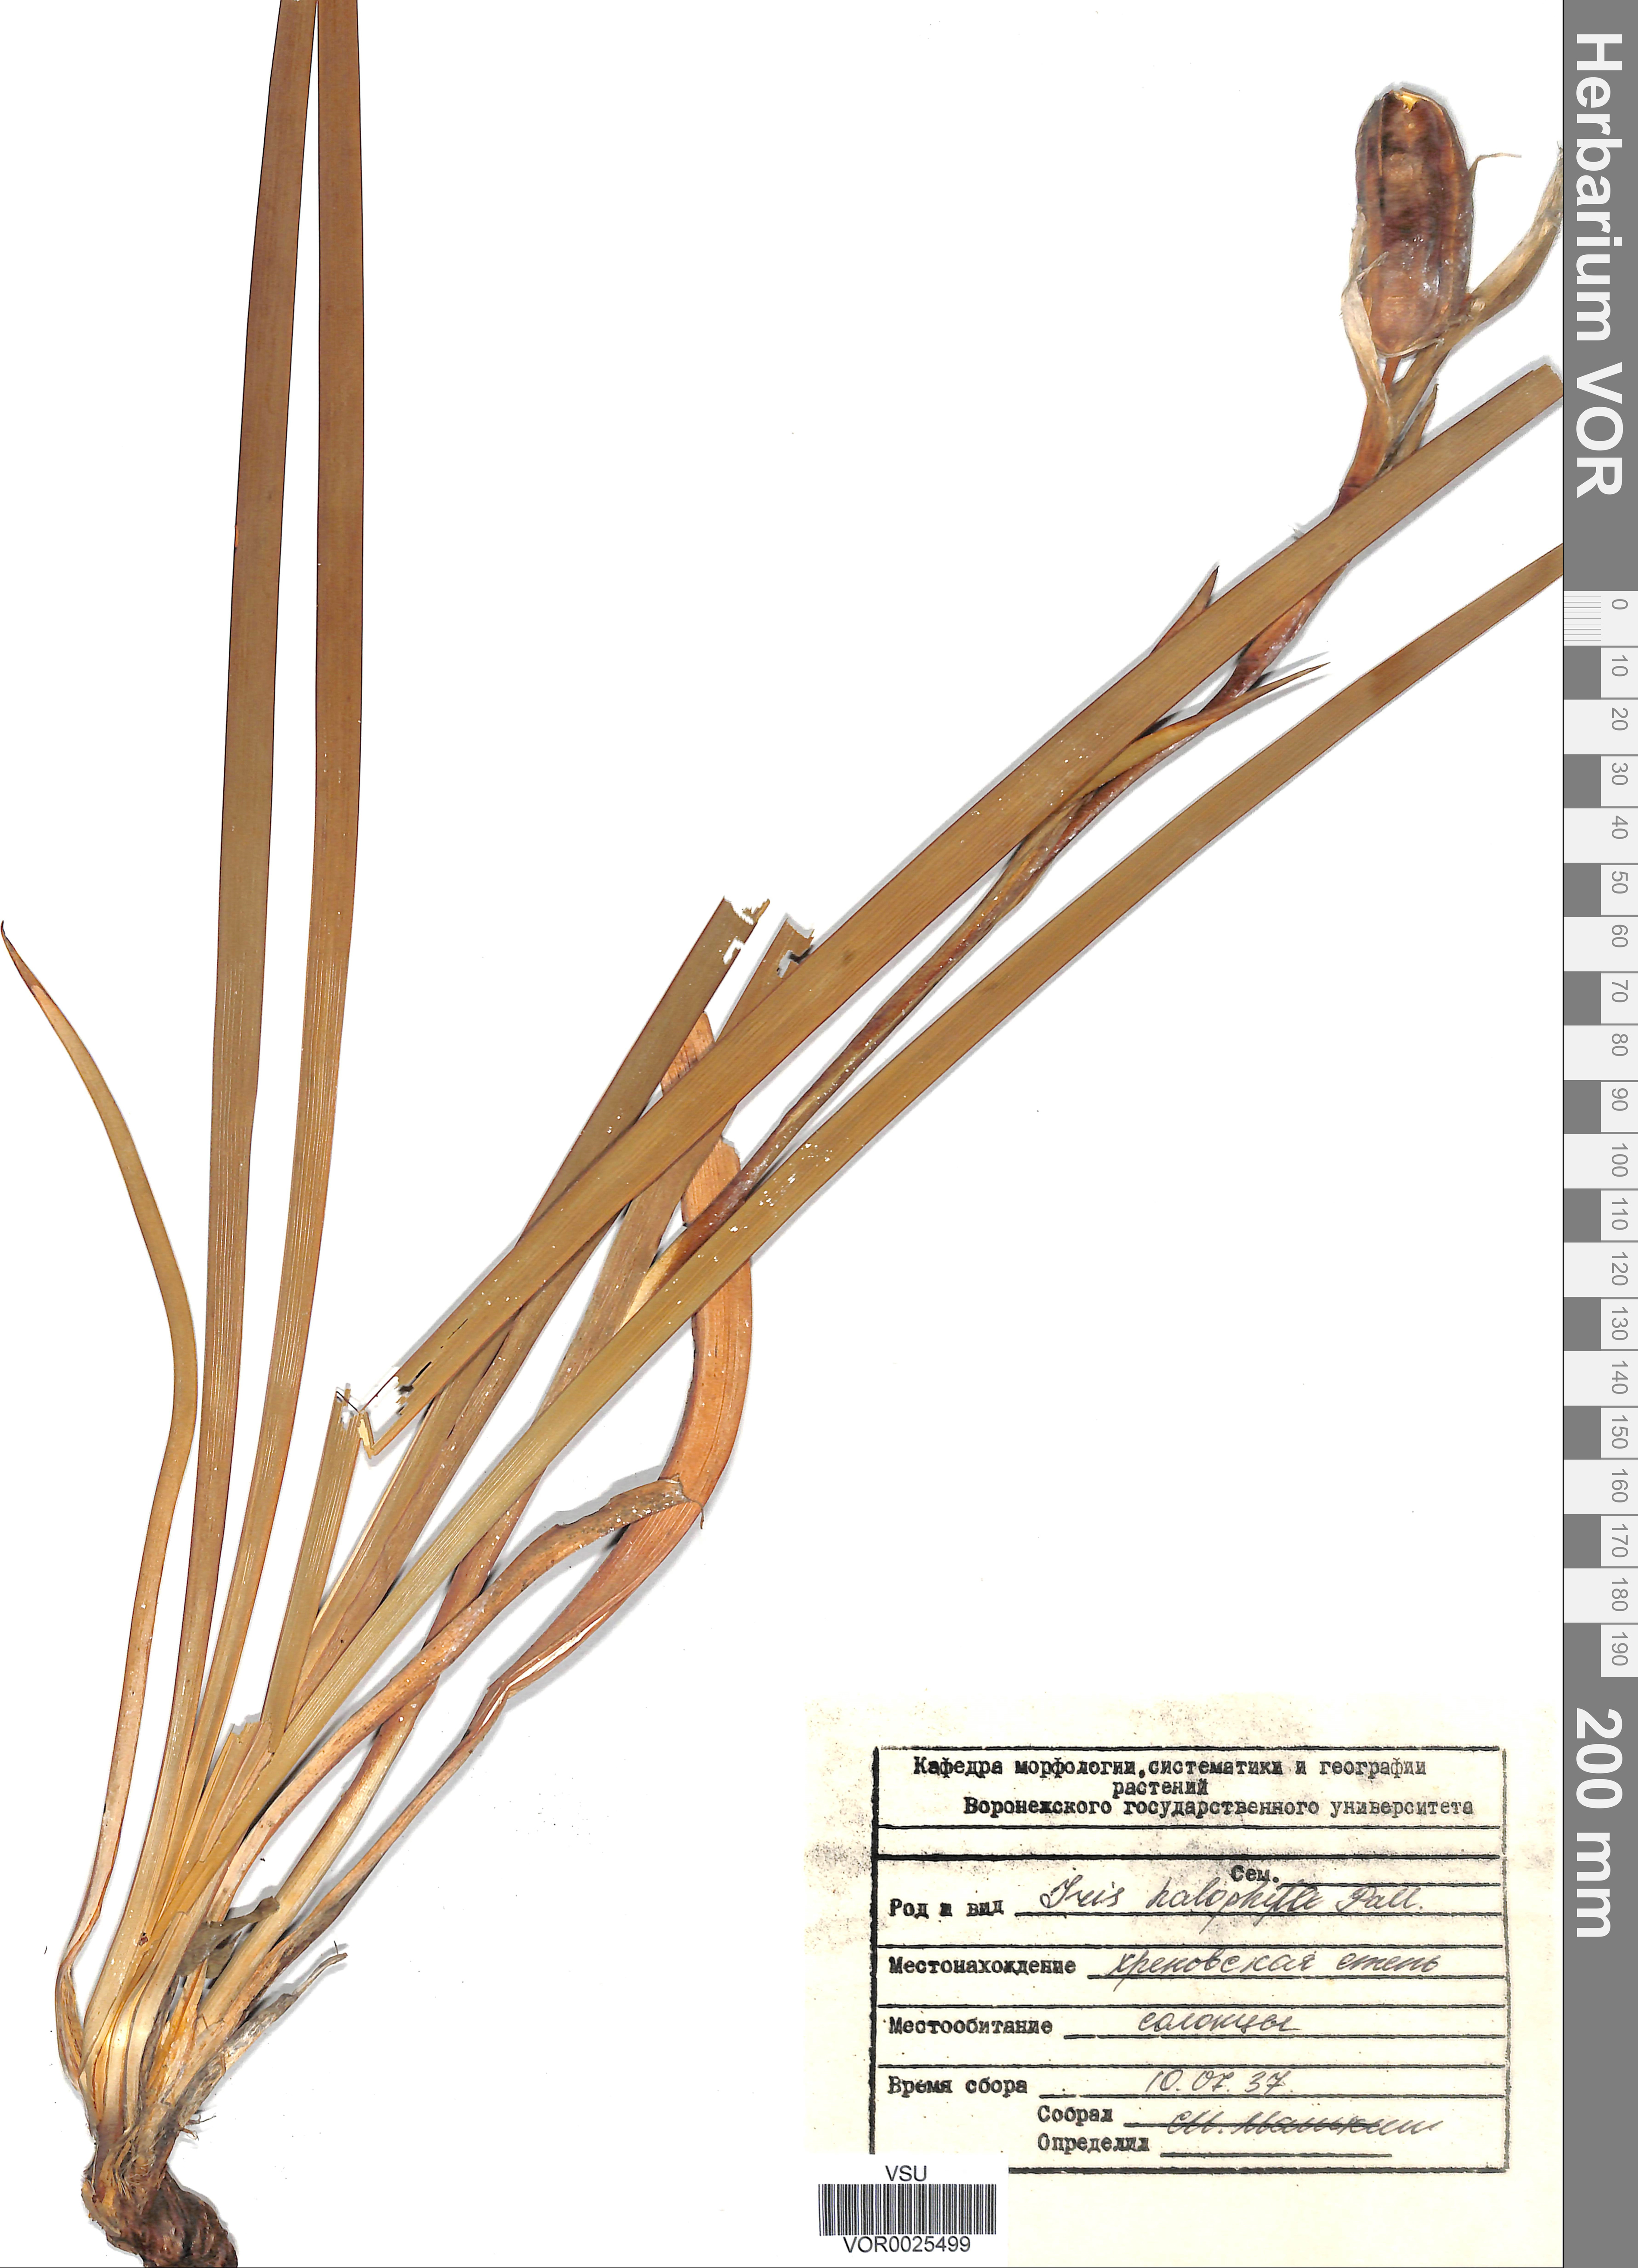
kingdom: Plantae
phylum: Tracheophyta
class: Liliopsida
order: Asparagales
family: Iridaceae
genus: Iris
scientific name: Iris halophila
